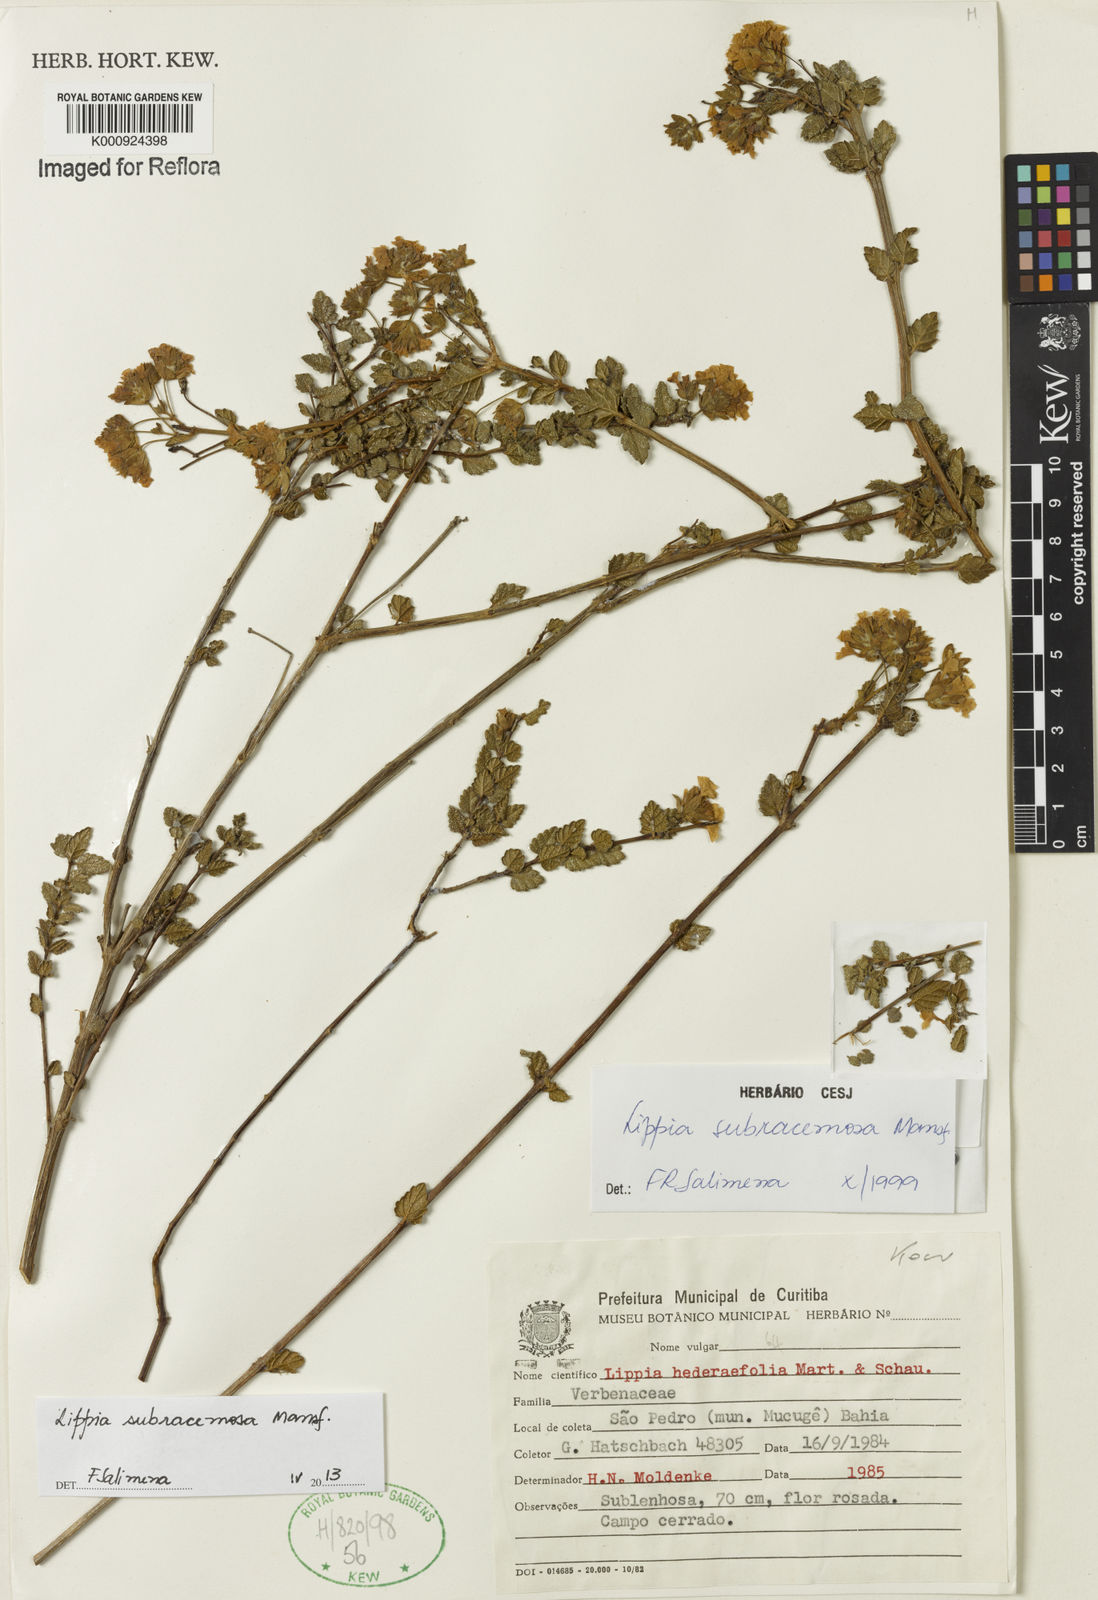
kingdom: Plantae
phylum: Tracheophyta
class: Magnoliopsida
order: Lamiales
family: Verbenaceae
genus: Lippia
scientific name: Lippia subracemosa
